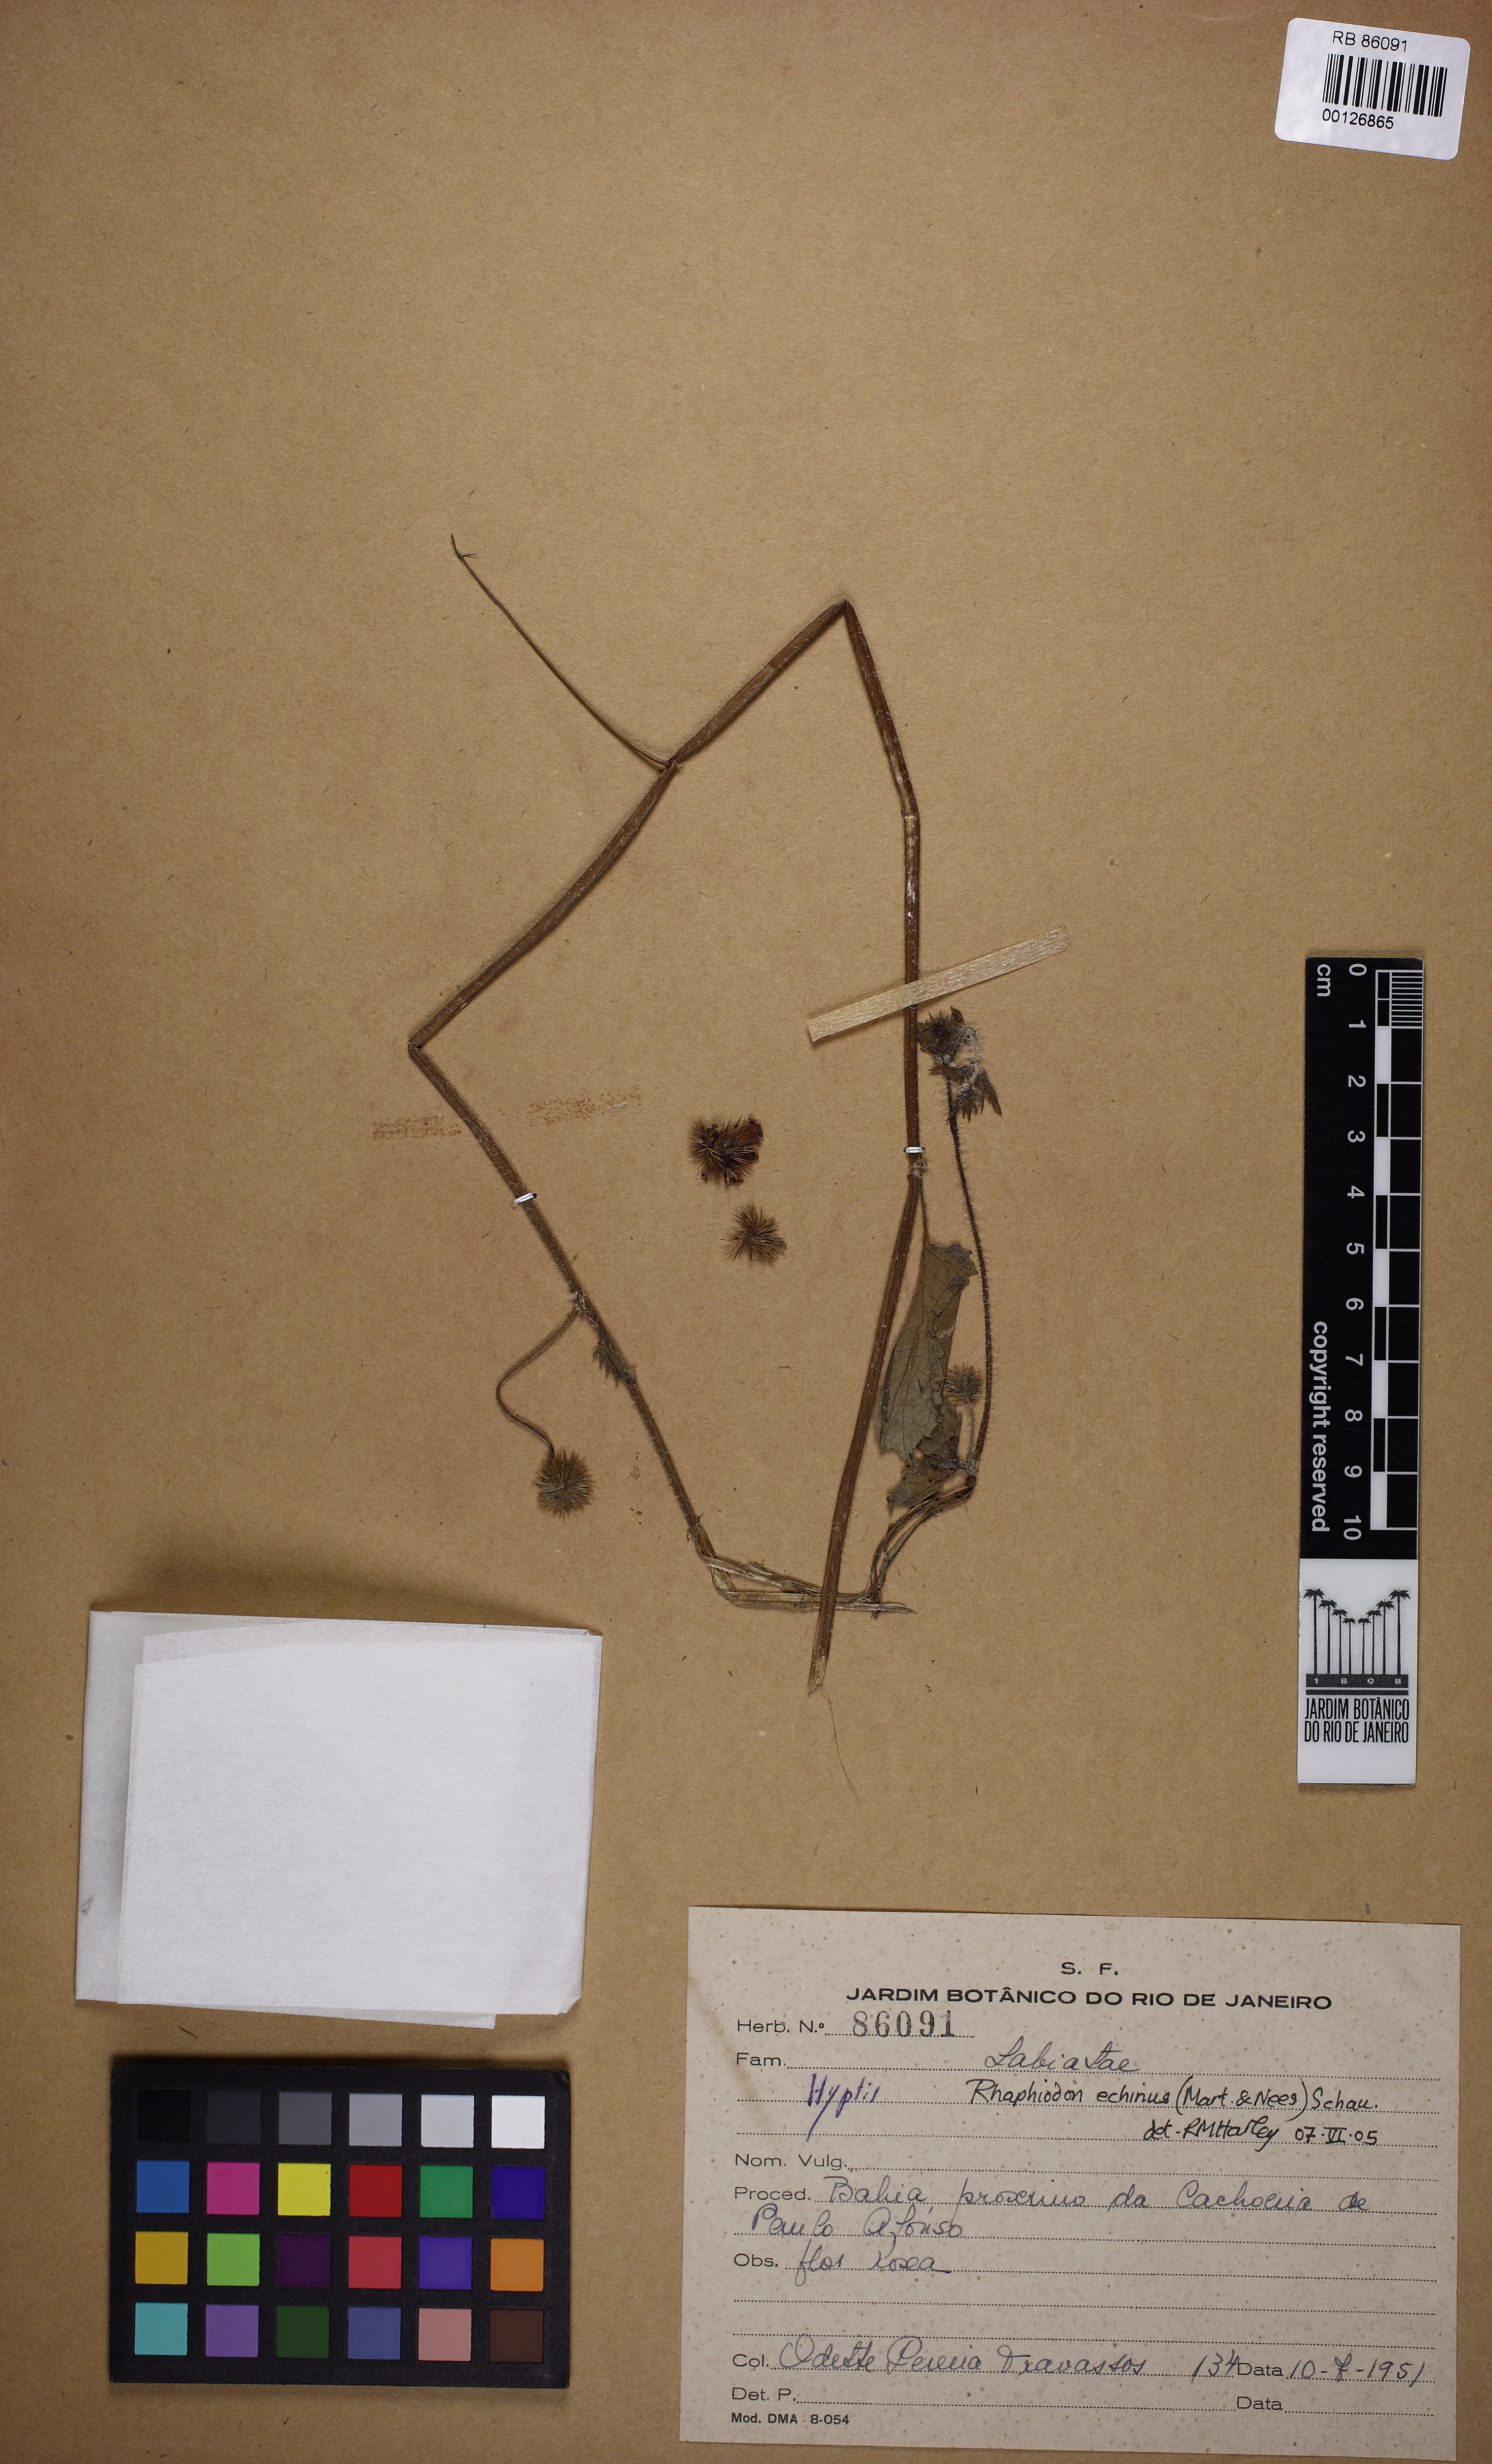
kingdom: Plantae
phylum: Tracheophyta
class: Magnoliopsida
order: Lamiales
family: Lamiaceae
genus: Rhaphiodon
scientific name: Rhaphiodon echinus
